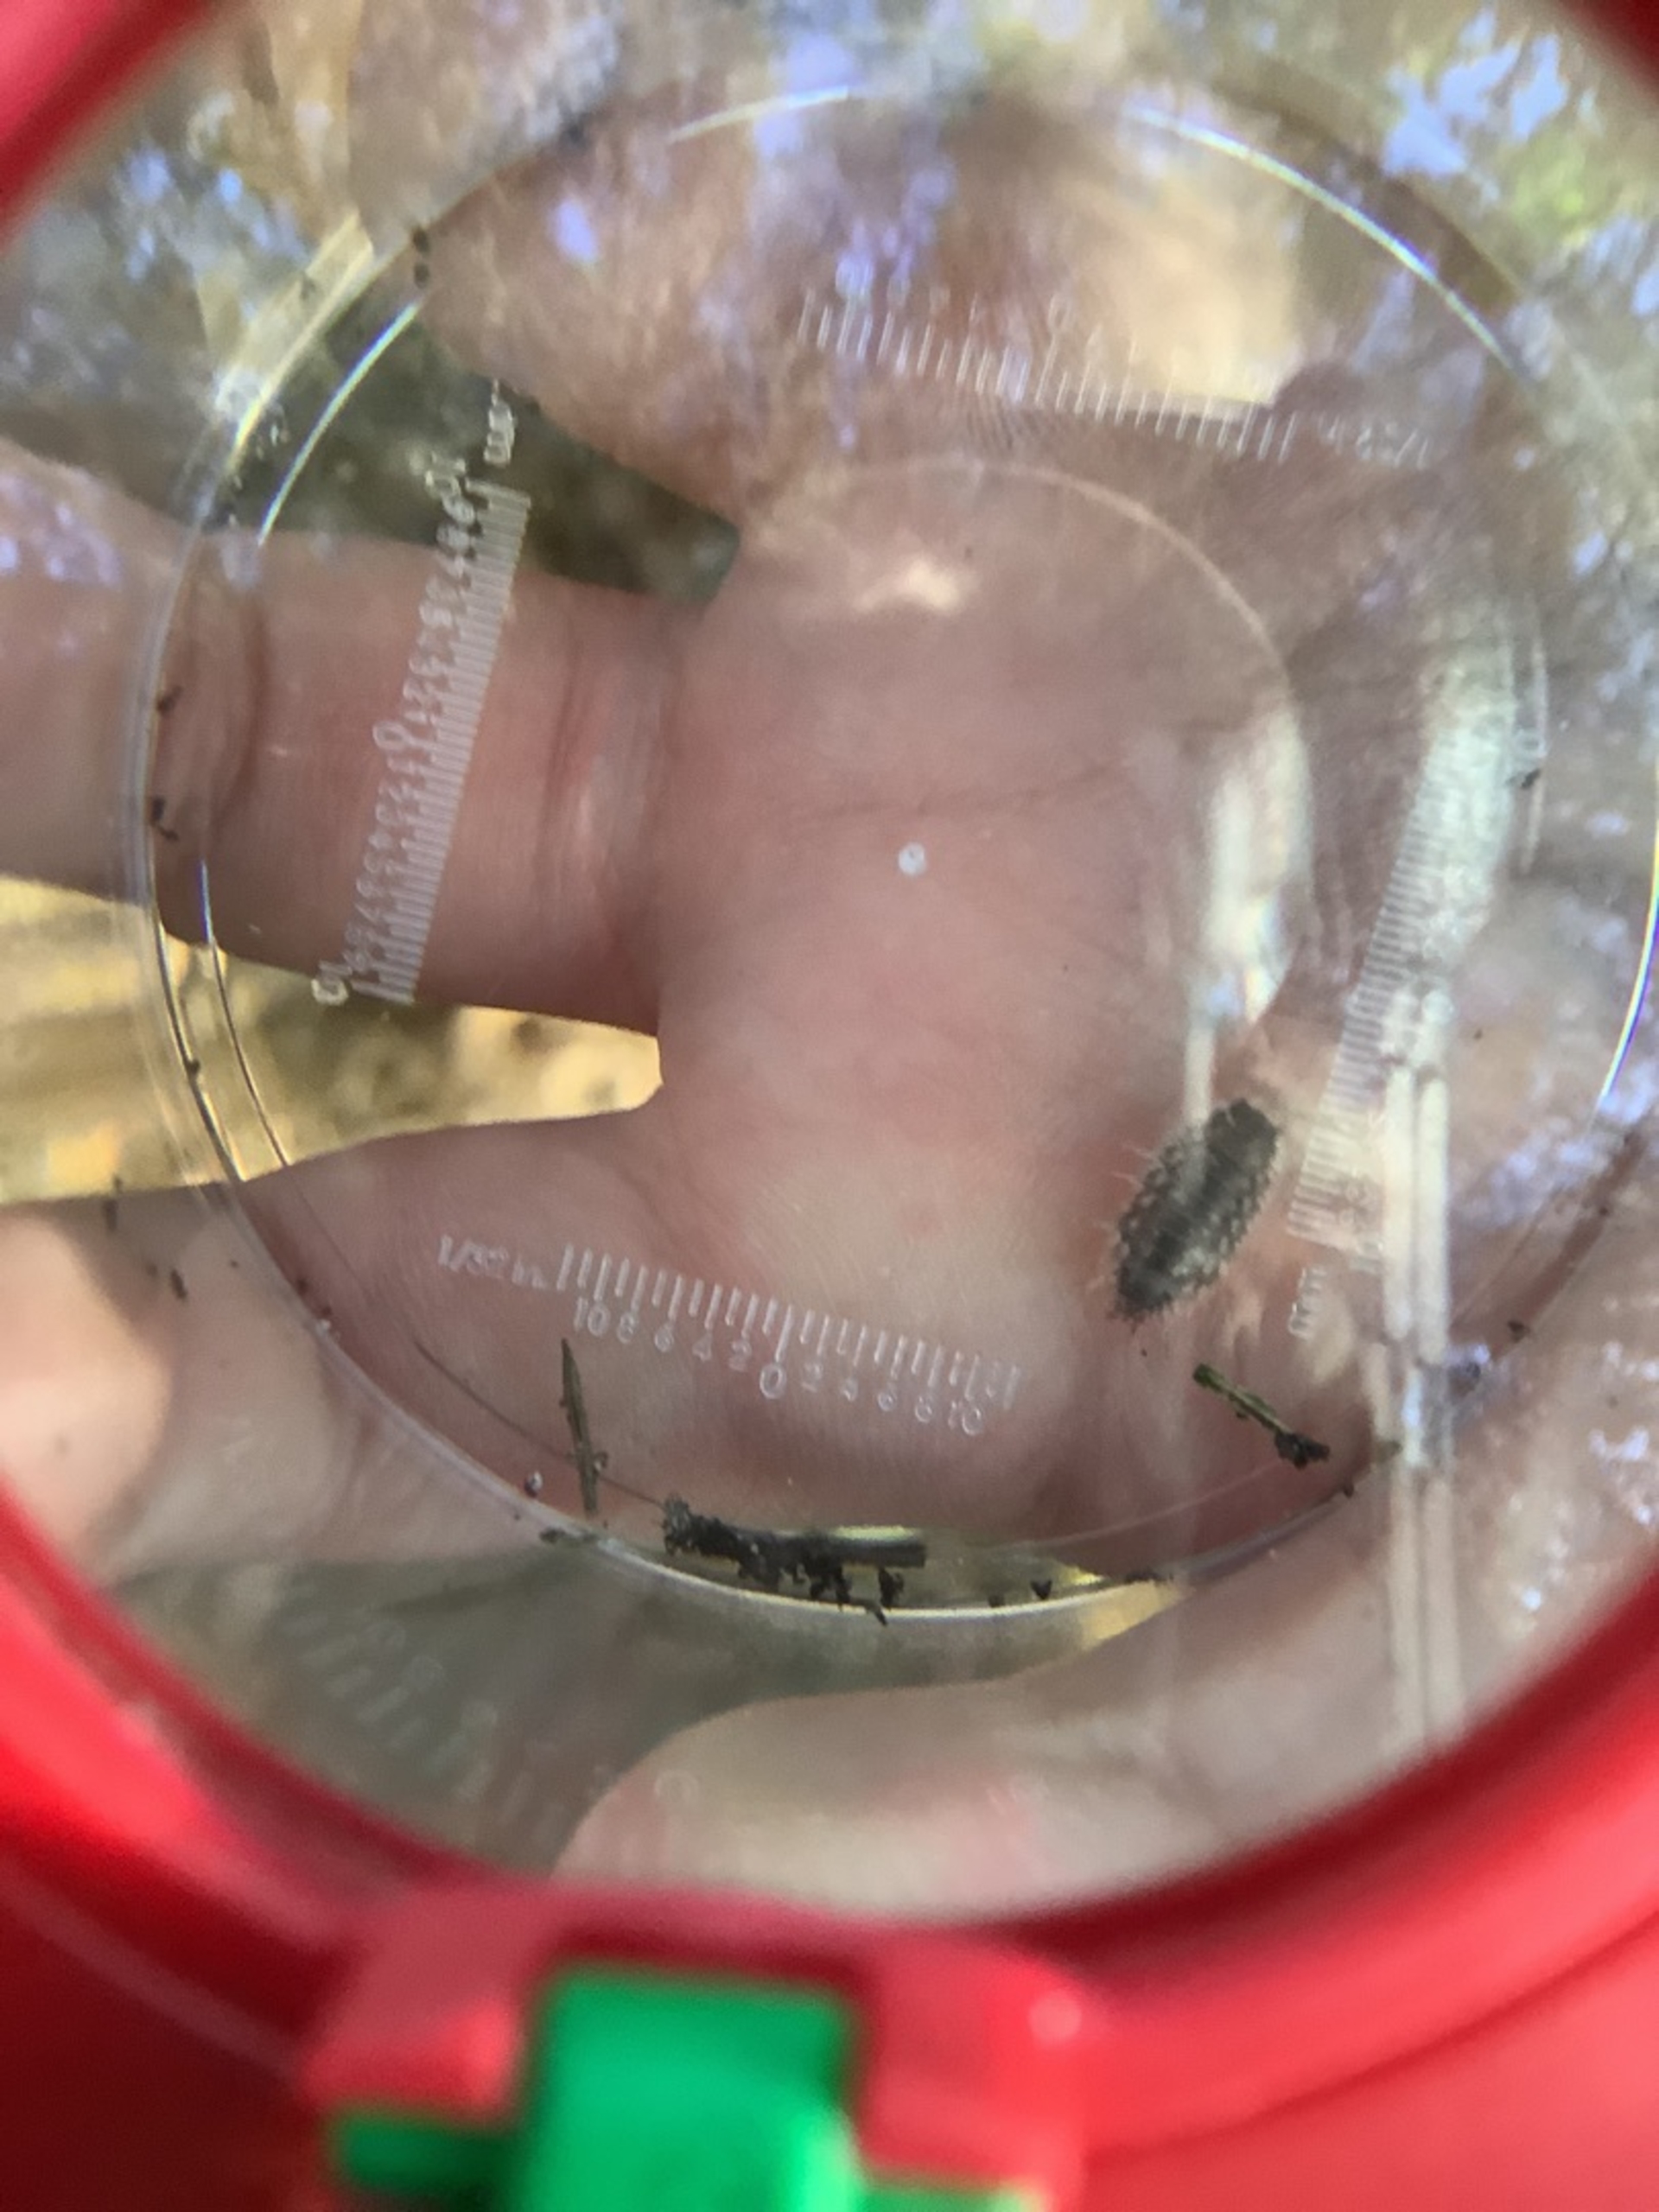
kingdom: Animalia
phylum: Arthropoda
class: Malacostraca
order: Isopoda
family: Philosciidae
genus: Philoscia
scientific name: Philoscia muscorum
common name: Langbenet bænkebider
